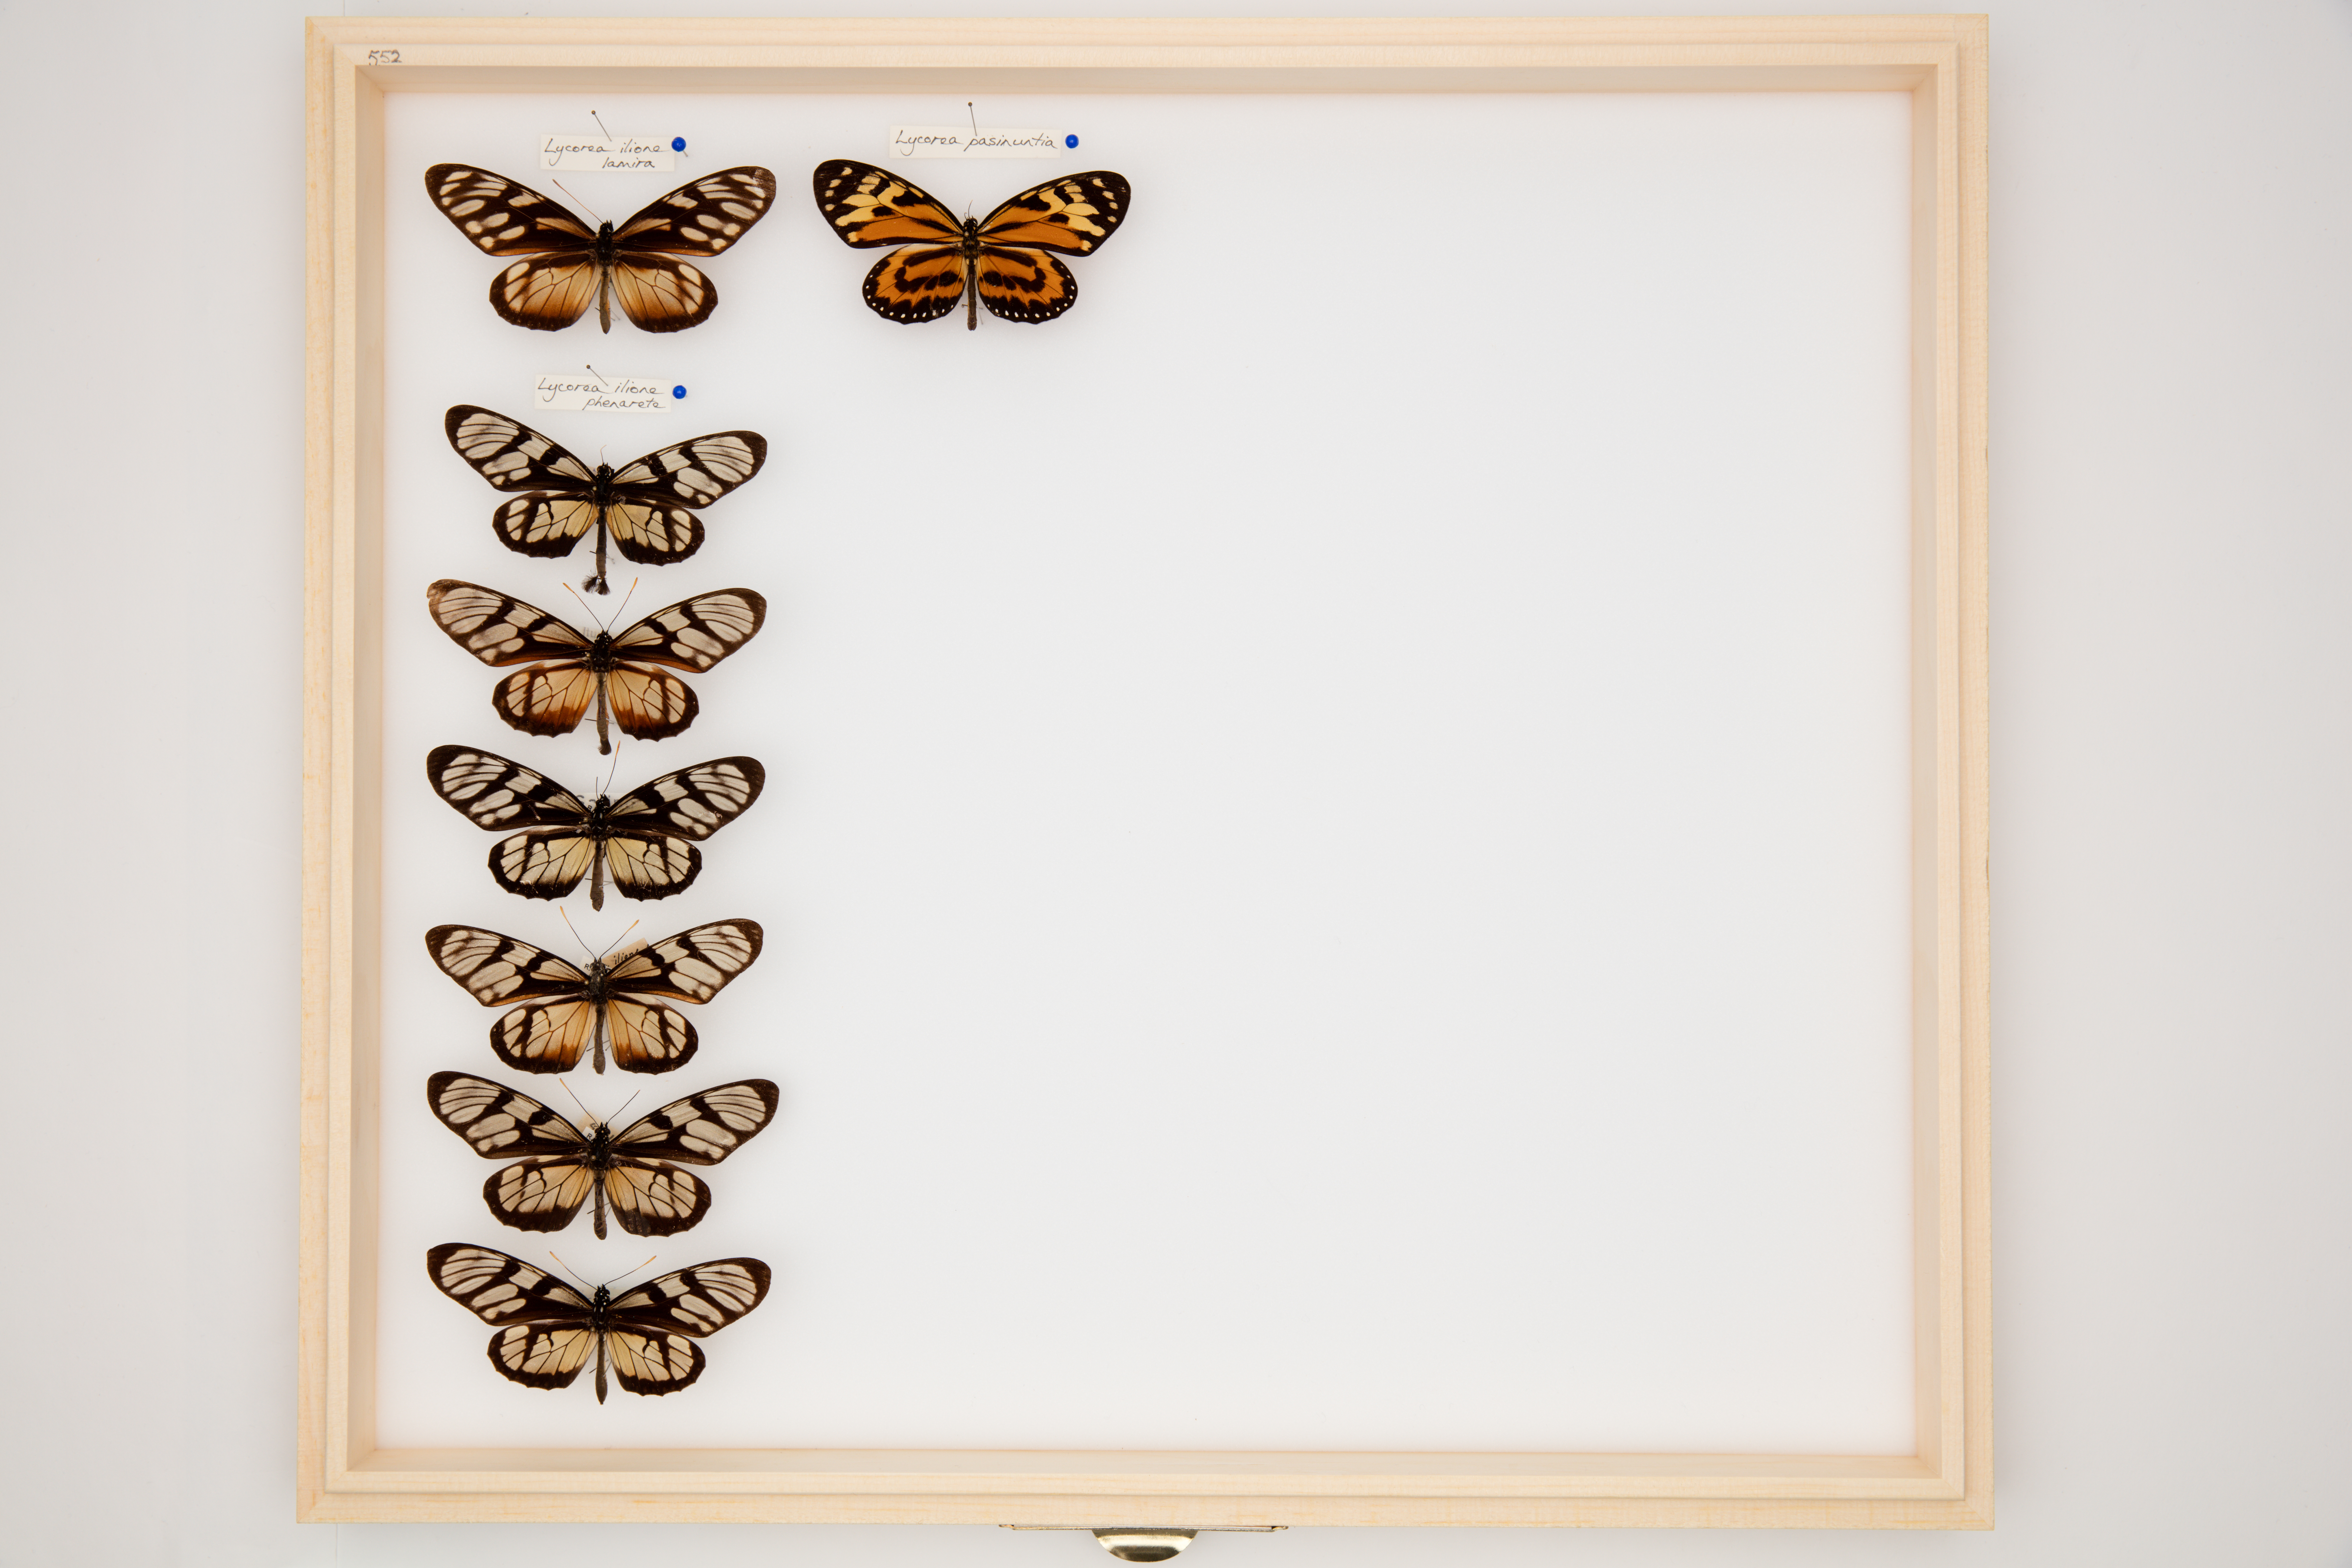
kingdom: Animalia
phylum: Arthropoda
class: Insecta
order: Lepidoptera
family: Nymphalidae
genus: Lycorea
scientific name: Lycorea ilione
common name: Clearwing mimic-queen
